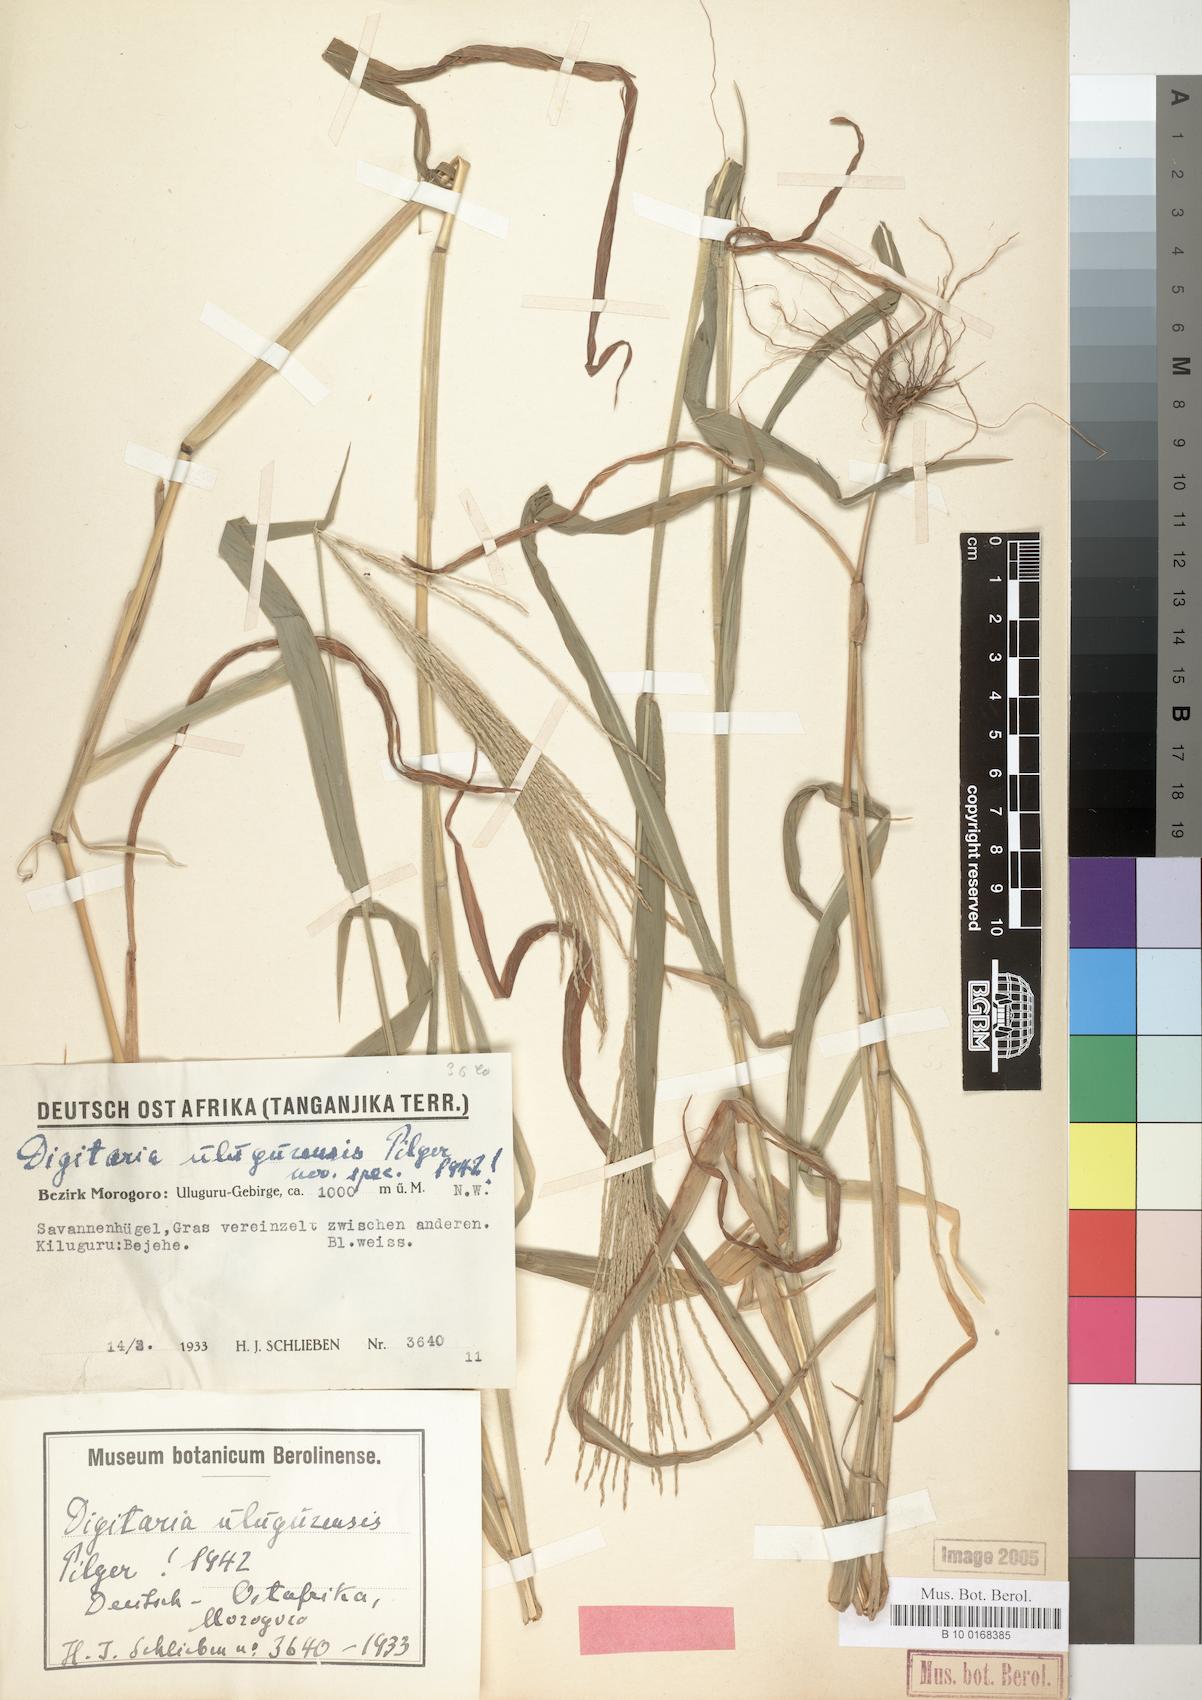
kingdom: Plantae
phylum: Tracheophyta
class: Liliopsida
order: Poales
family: Poaceae
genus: Digitaria
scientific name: Digitaria velutina
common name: Long-plume finger grass
